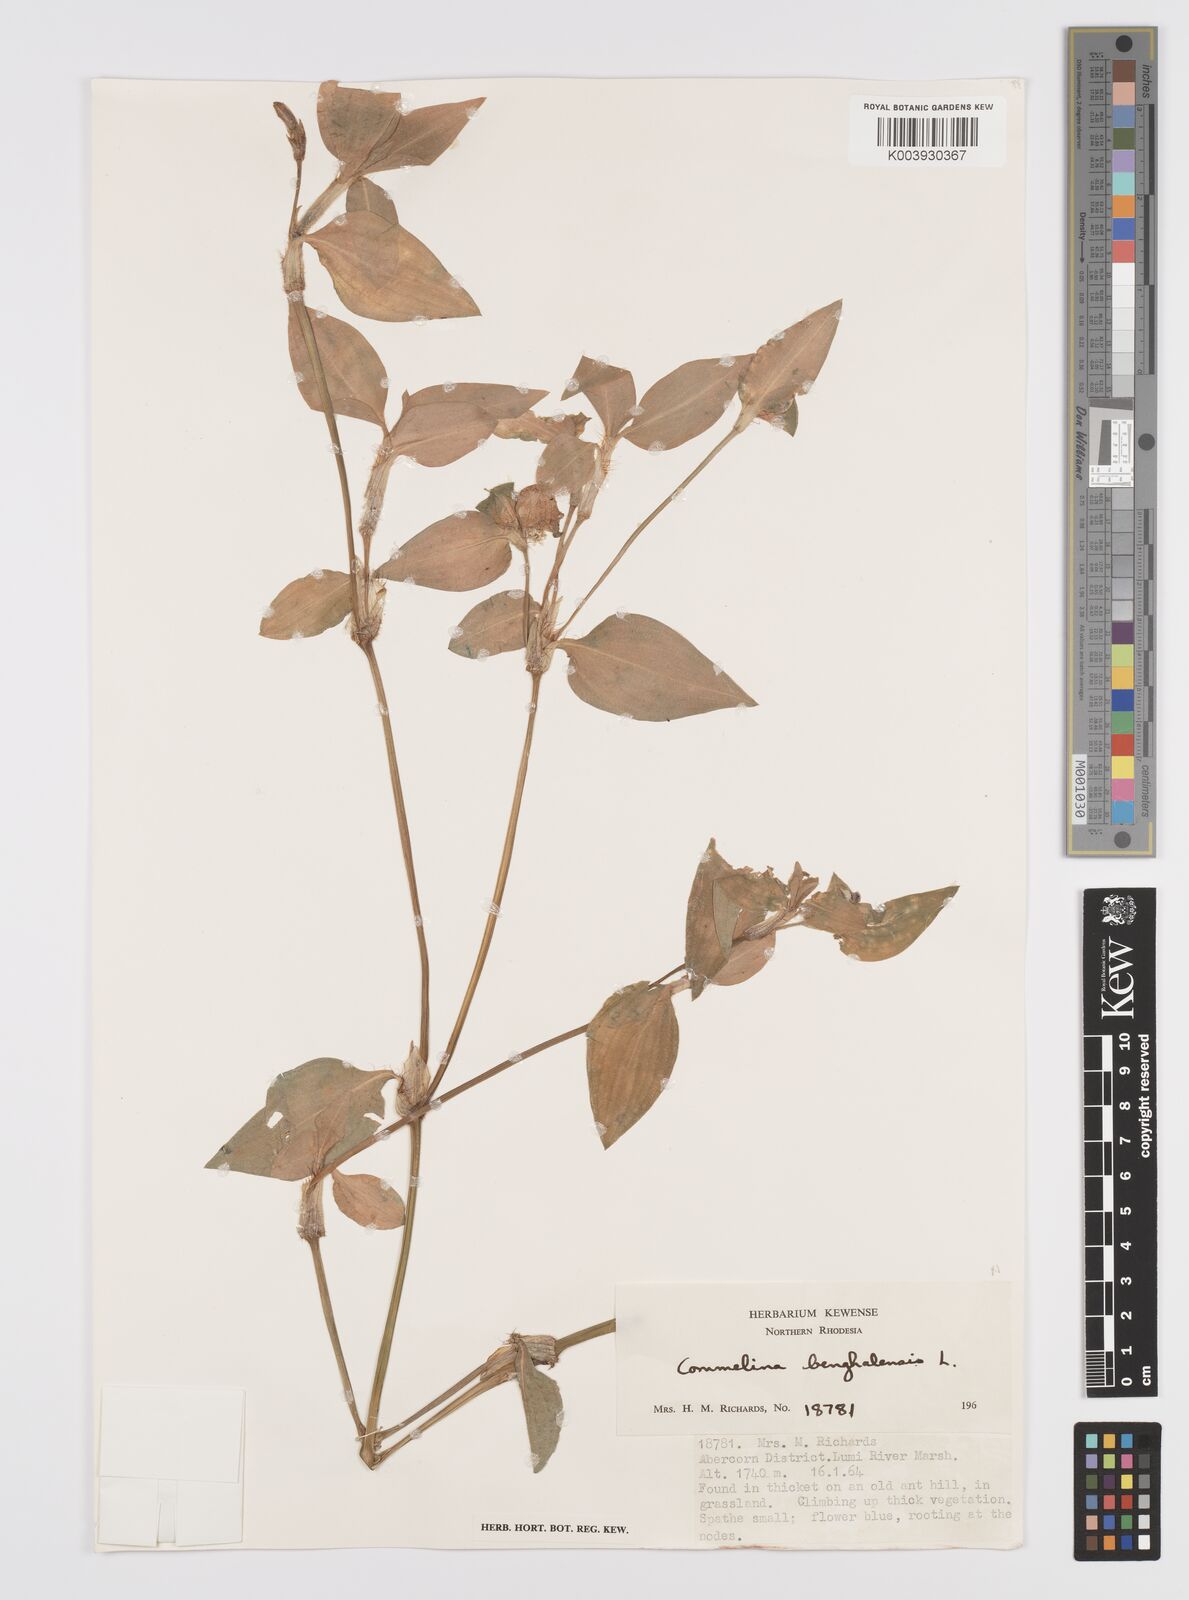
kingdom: Plantae
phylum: Tracheophyta
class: Liliopsida
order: Commelinales
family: Commelinaceae
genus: Commelina
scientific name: Commelina benghalensis
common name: Jio
